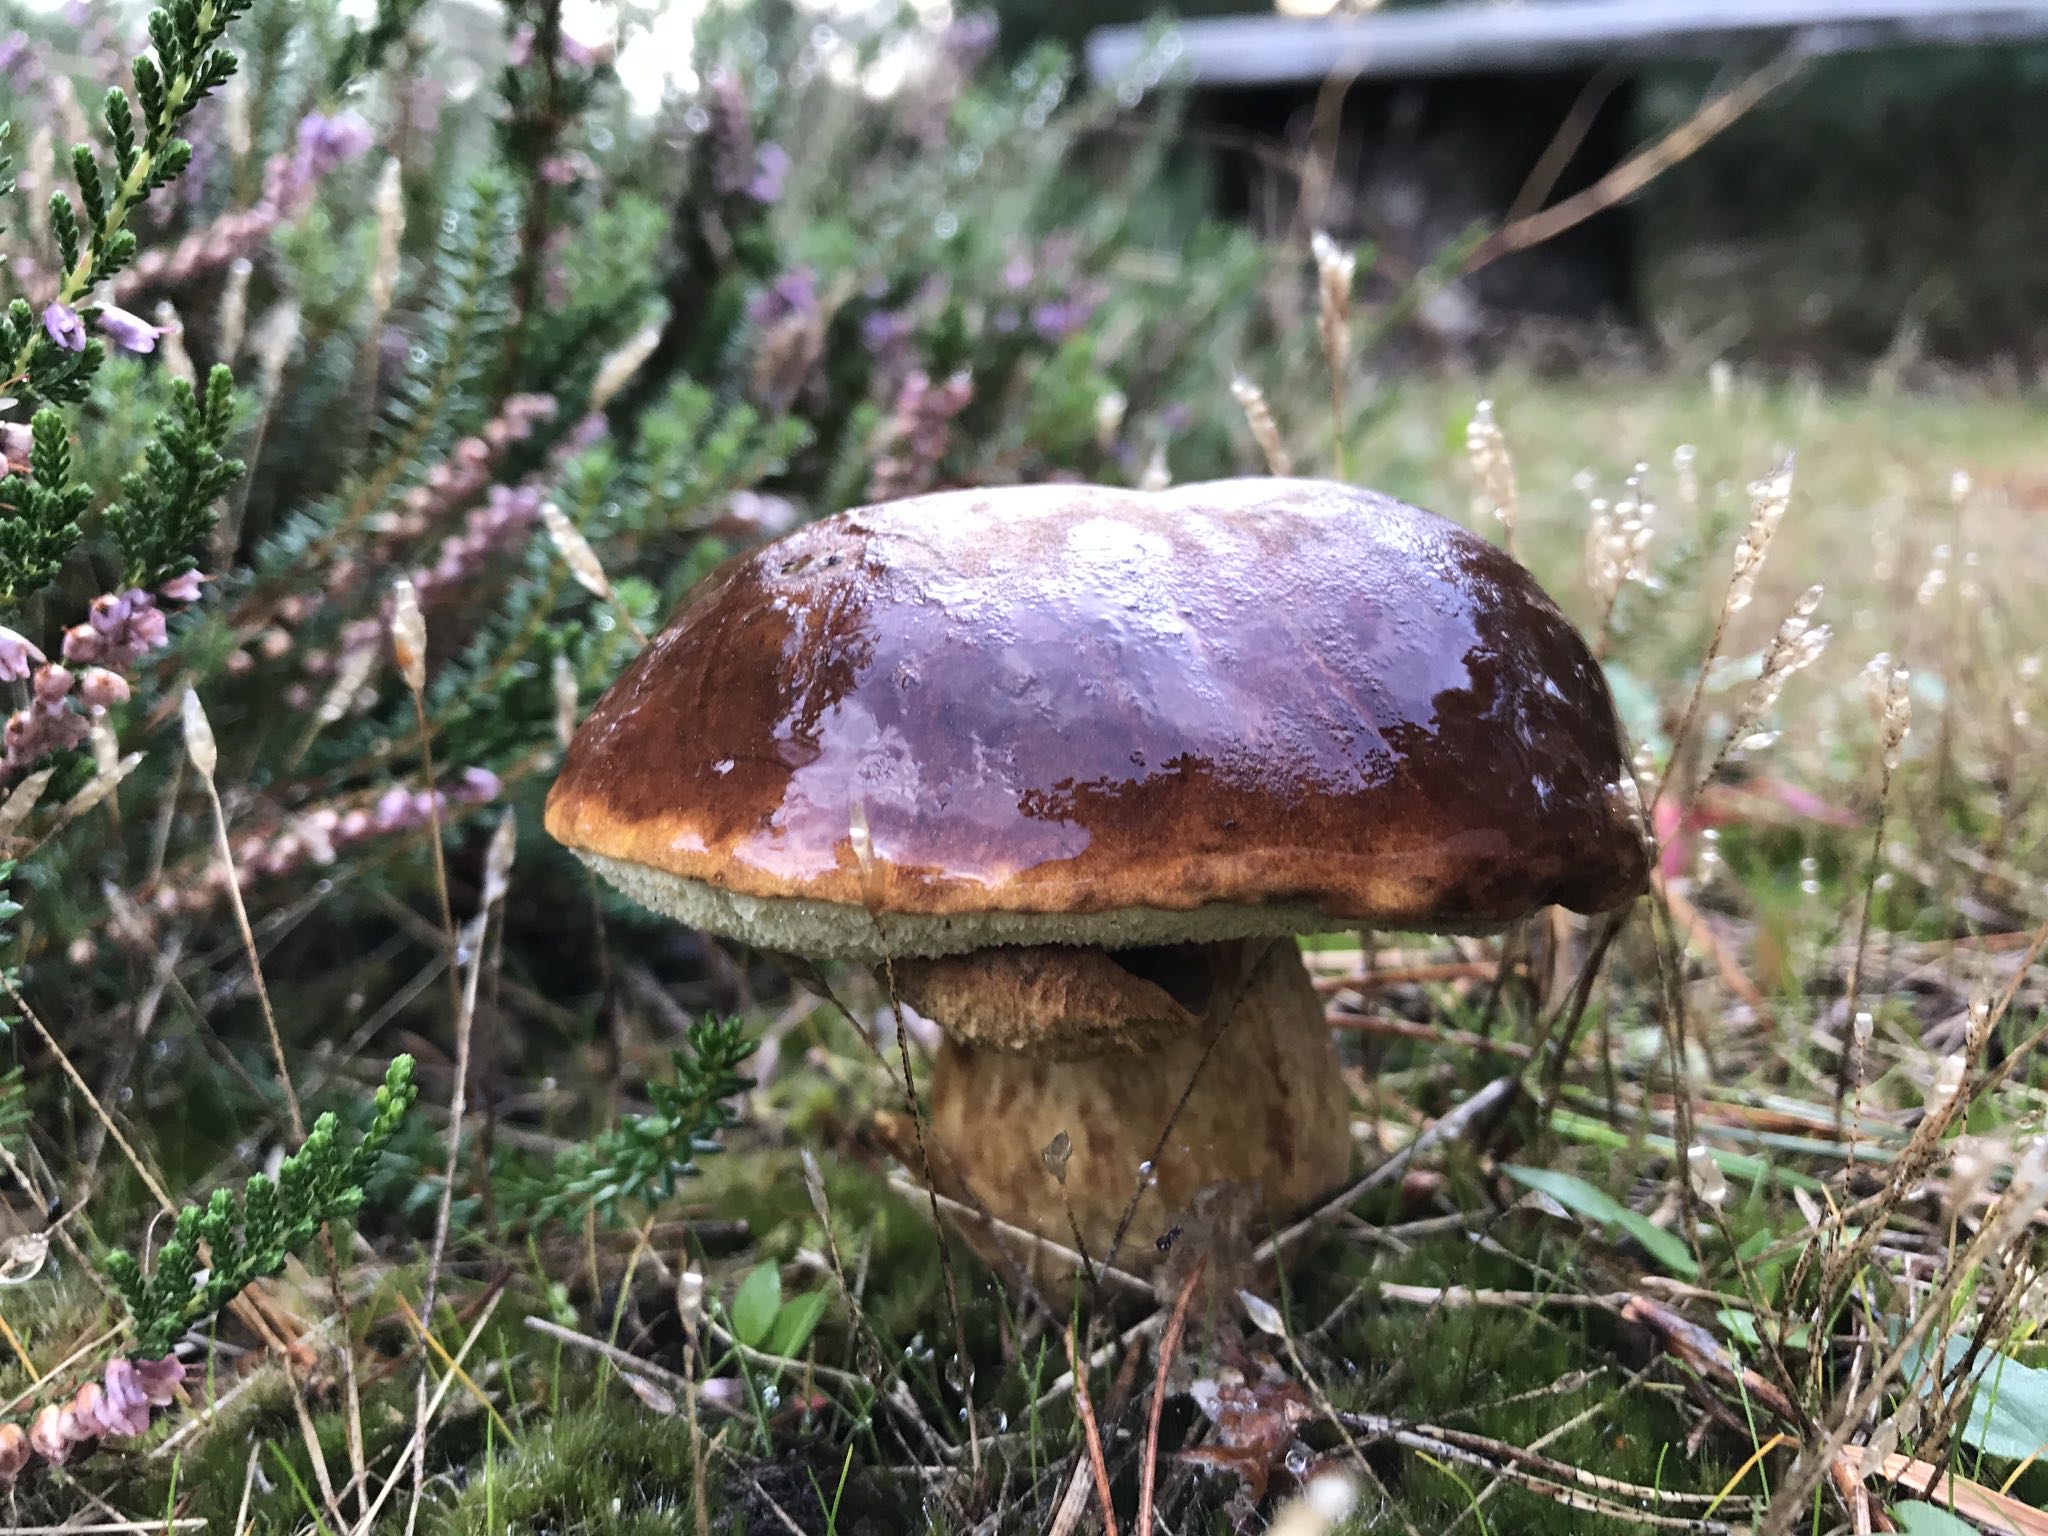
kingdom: Fungi
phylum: Basidiomycota
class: Agaricomycetes
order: Boletales
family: Boletaceae
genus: Imleria
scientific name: Imleria badia
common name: brunstokket rørhat
